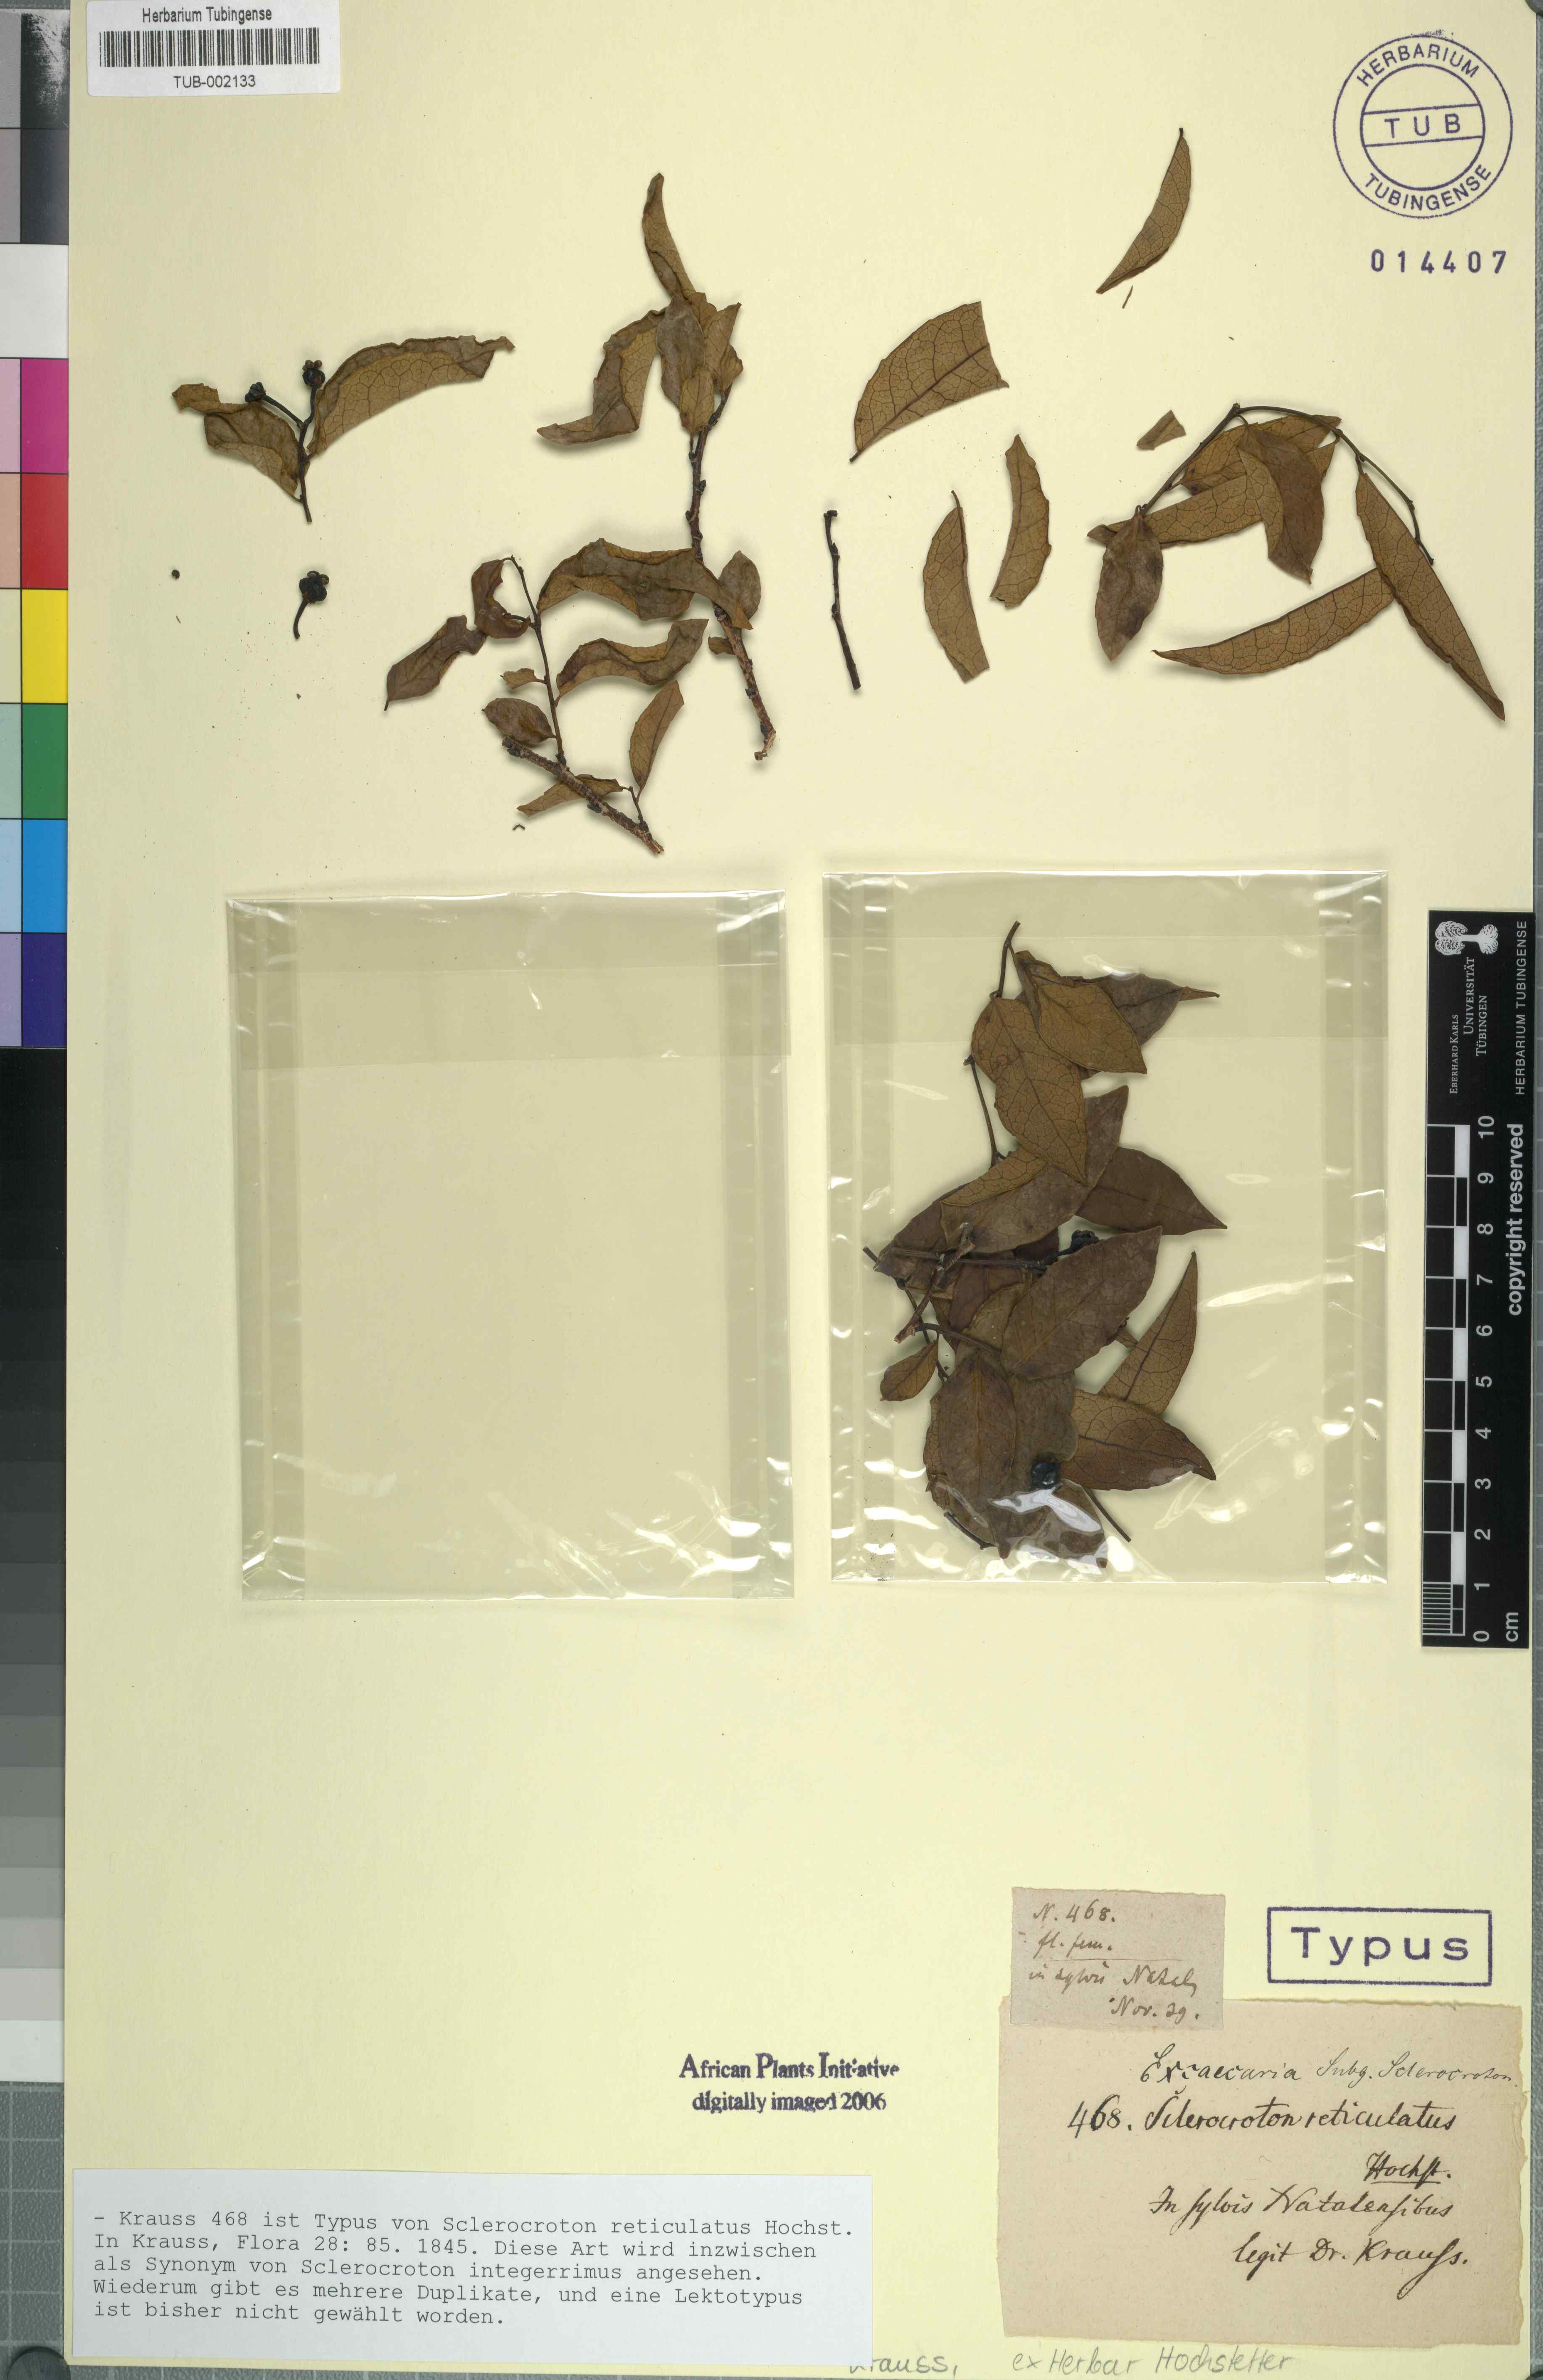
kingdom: Plantae
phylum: Tracheophyta
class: Magnoliopsida
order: Malpighiales
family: Euphorbiaceae
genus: Sclerocroton
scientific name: Sclerocroton integerrimus
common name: Duiker berry
